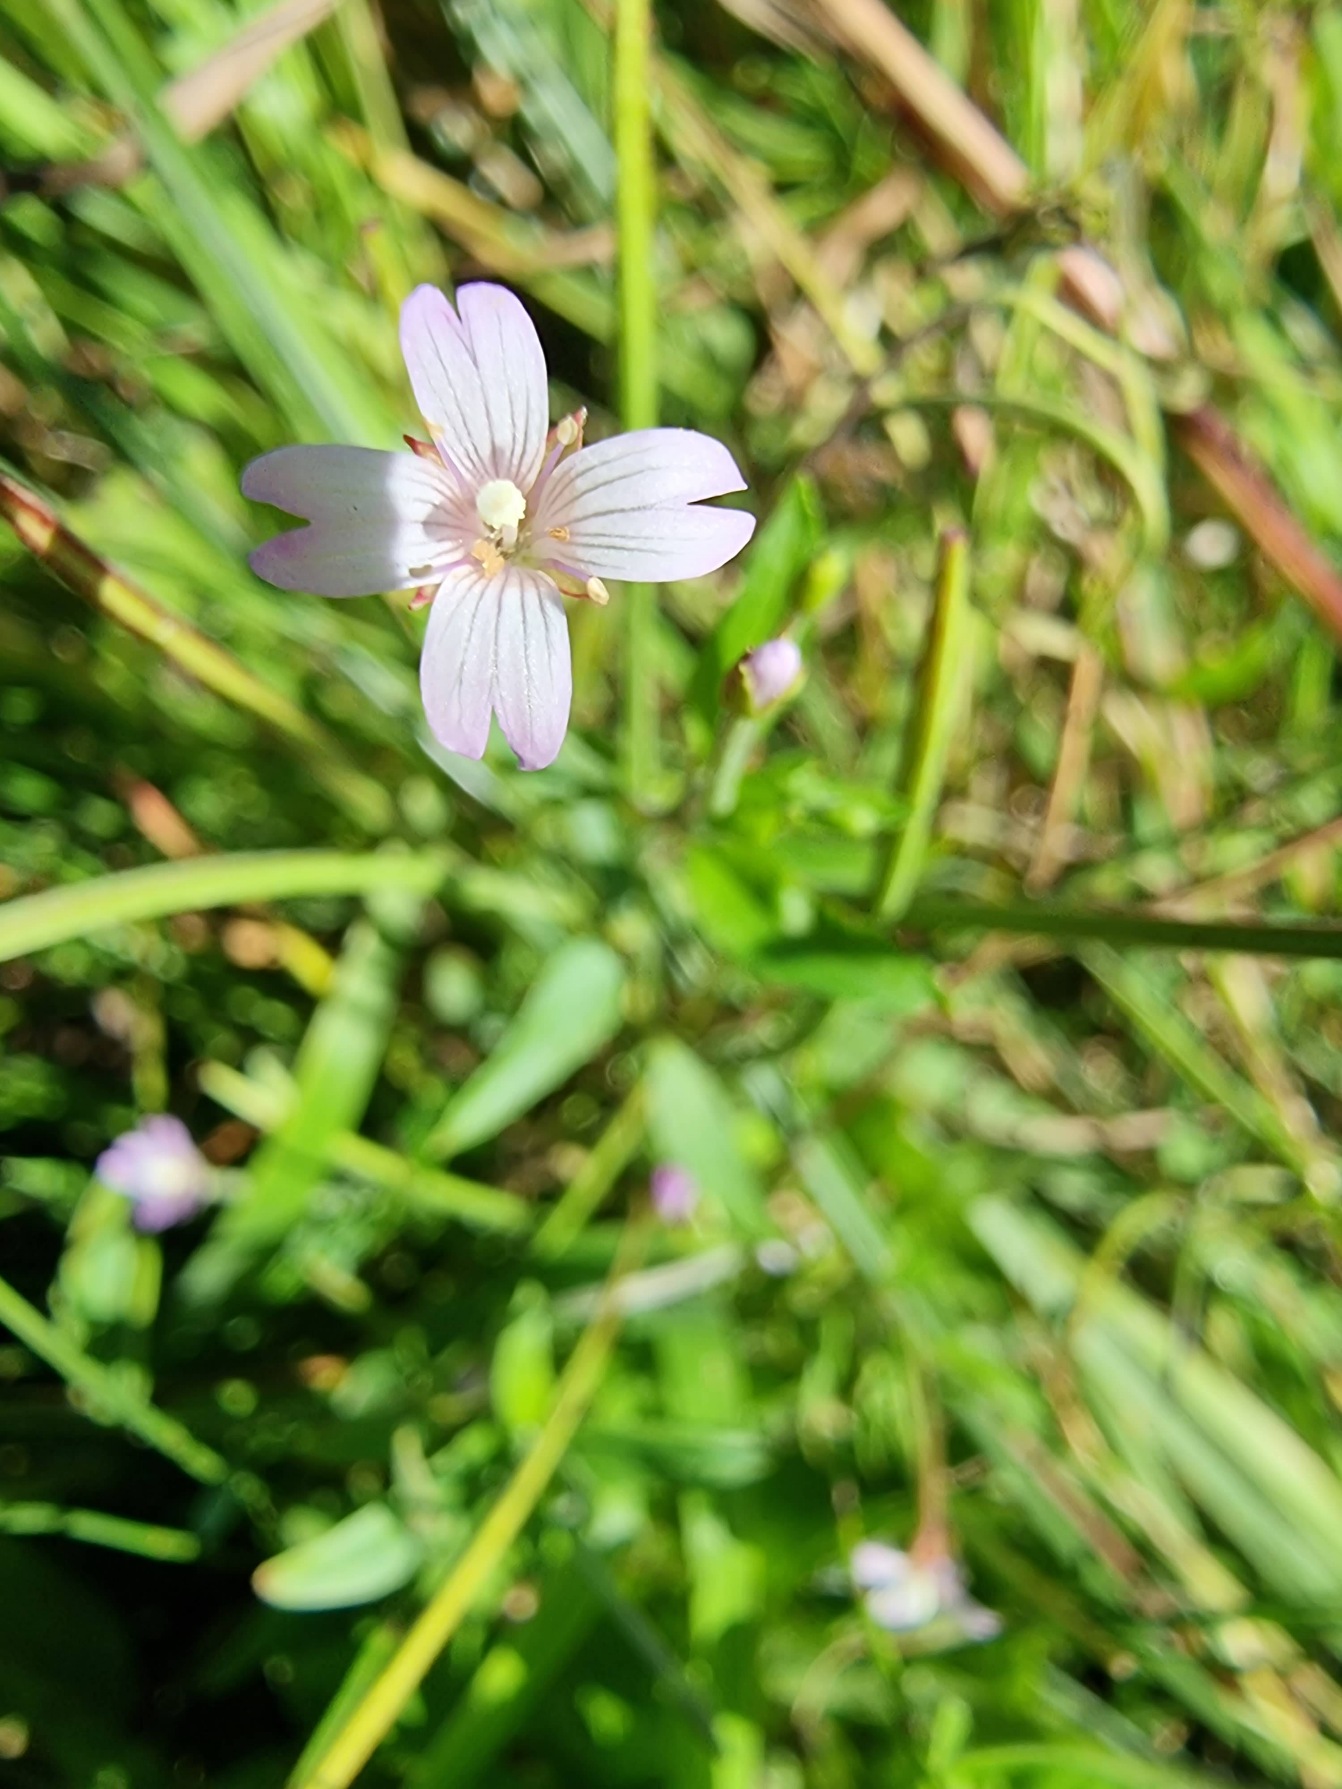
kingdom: Plantae
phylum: Tracheophyta
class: Magnoliopsida
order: Myrtales
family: Onagraceae
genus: Epilobium
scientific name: Epilobium
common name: Dueurtslægten
